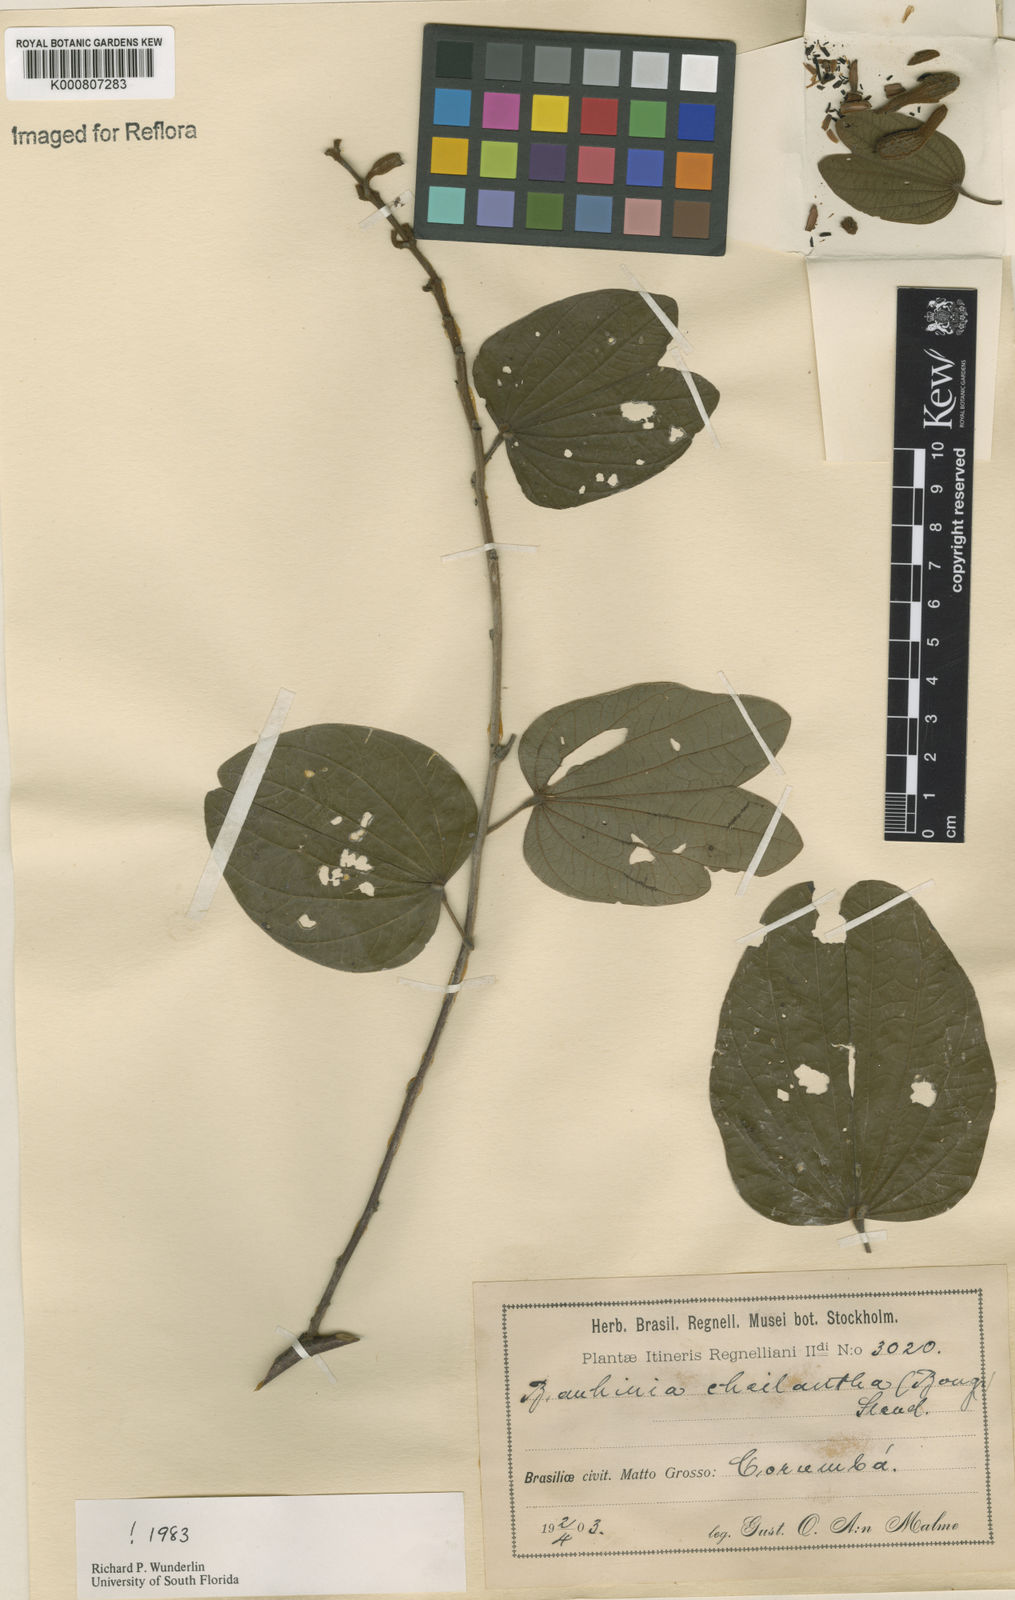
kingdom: Plantae
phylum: Tracheophyta
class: Magnoliopsida
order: Fabales
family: Fabaceae
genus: Bauhinia
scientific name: Bauhinia cheilantha
